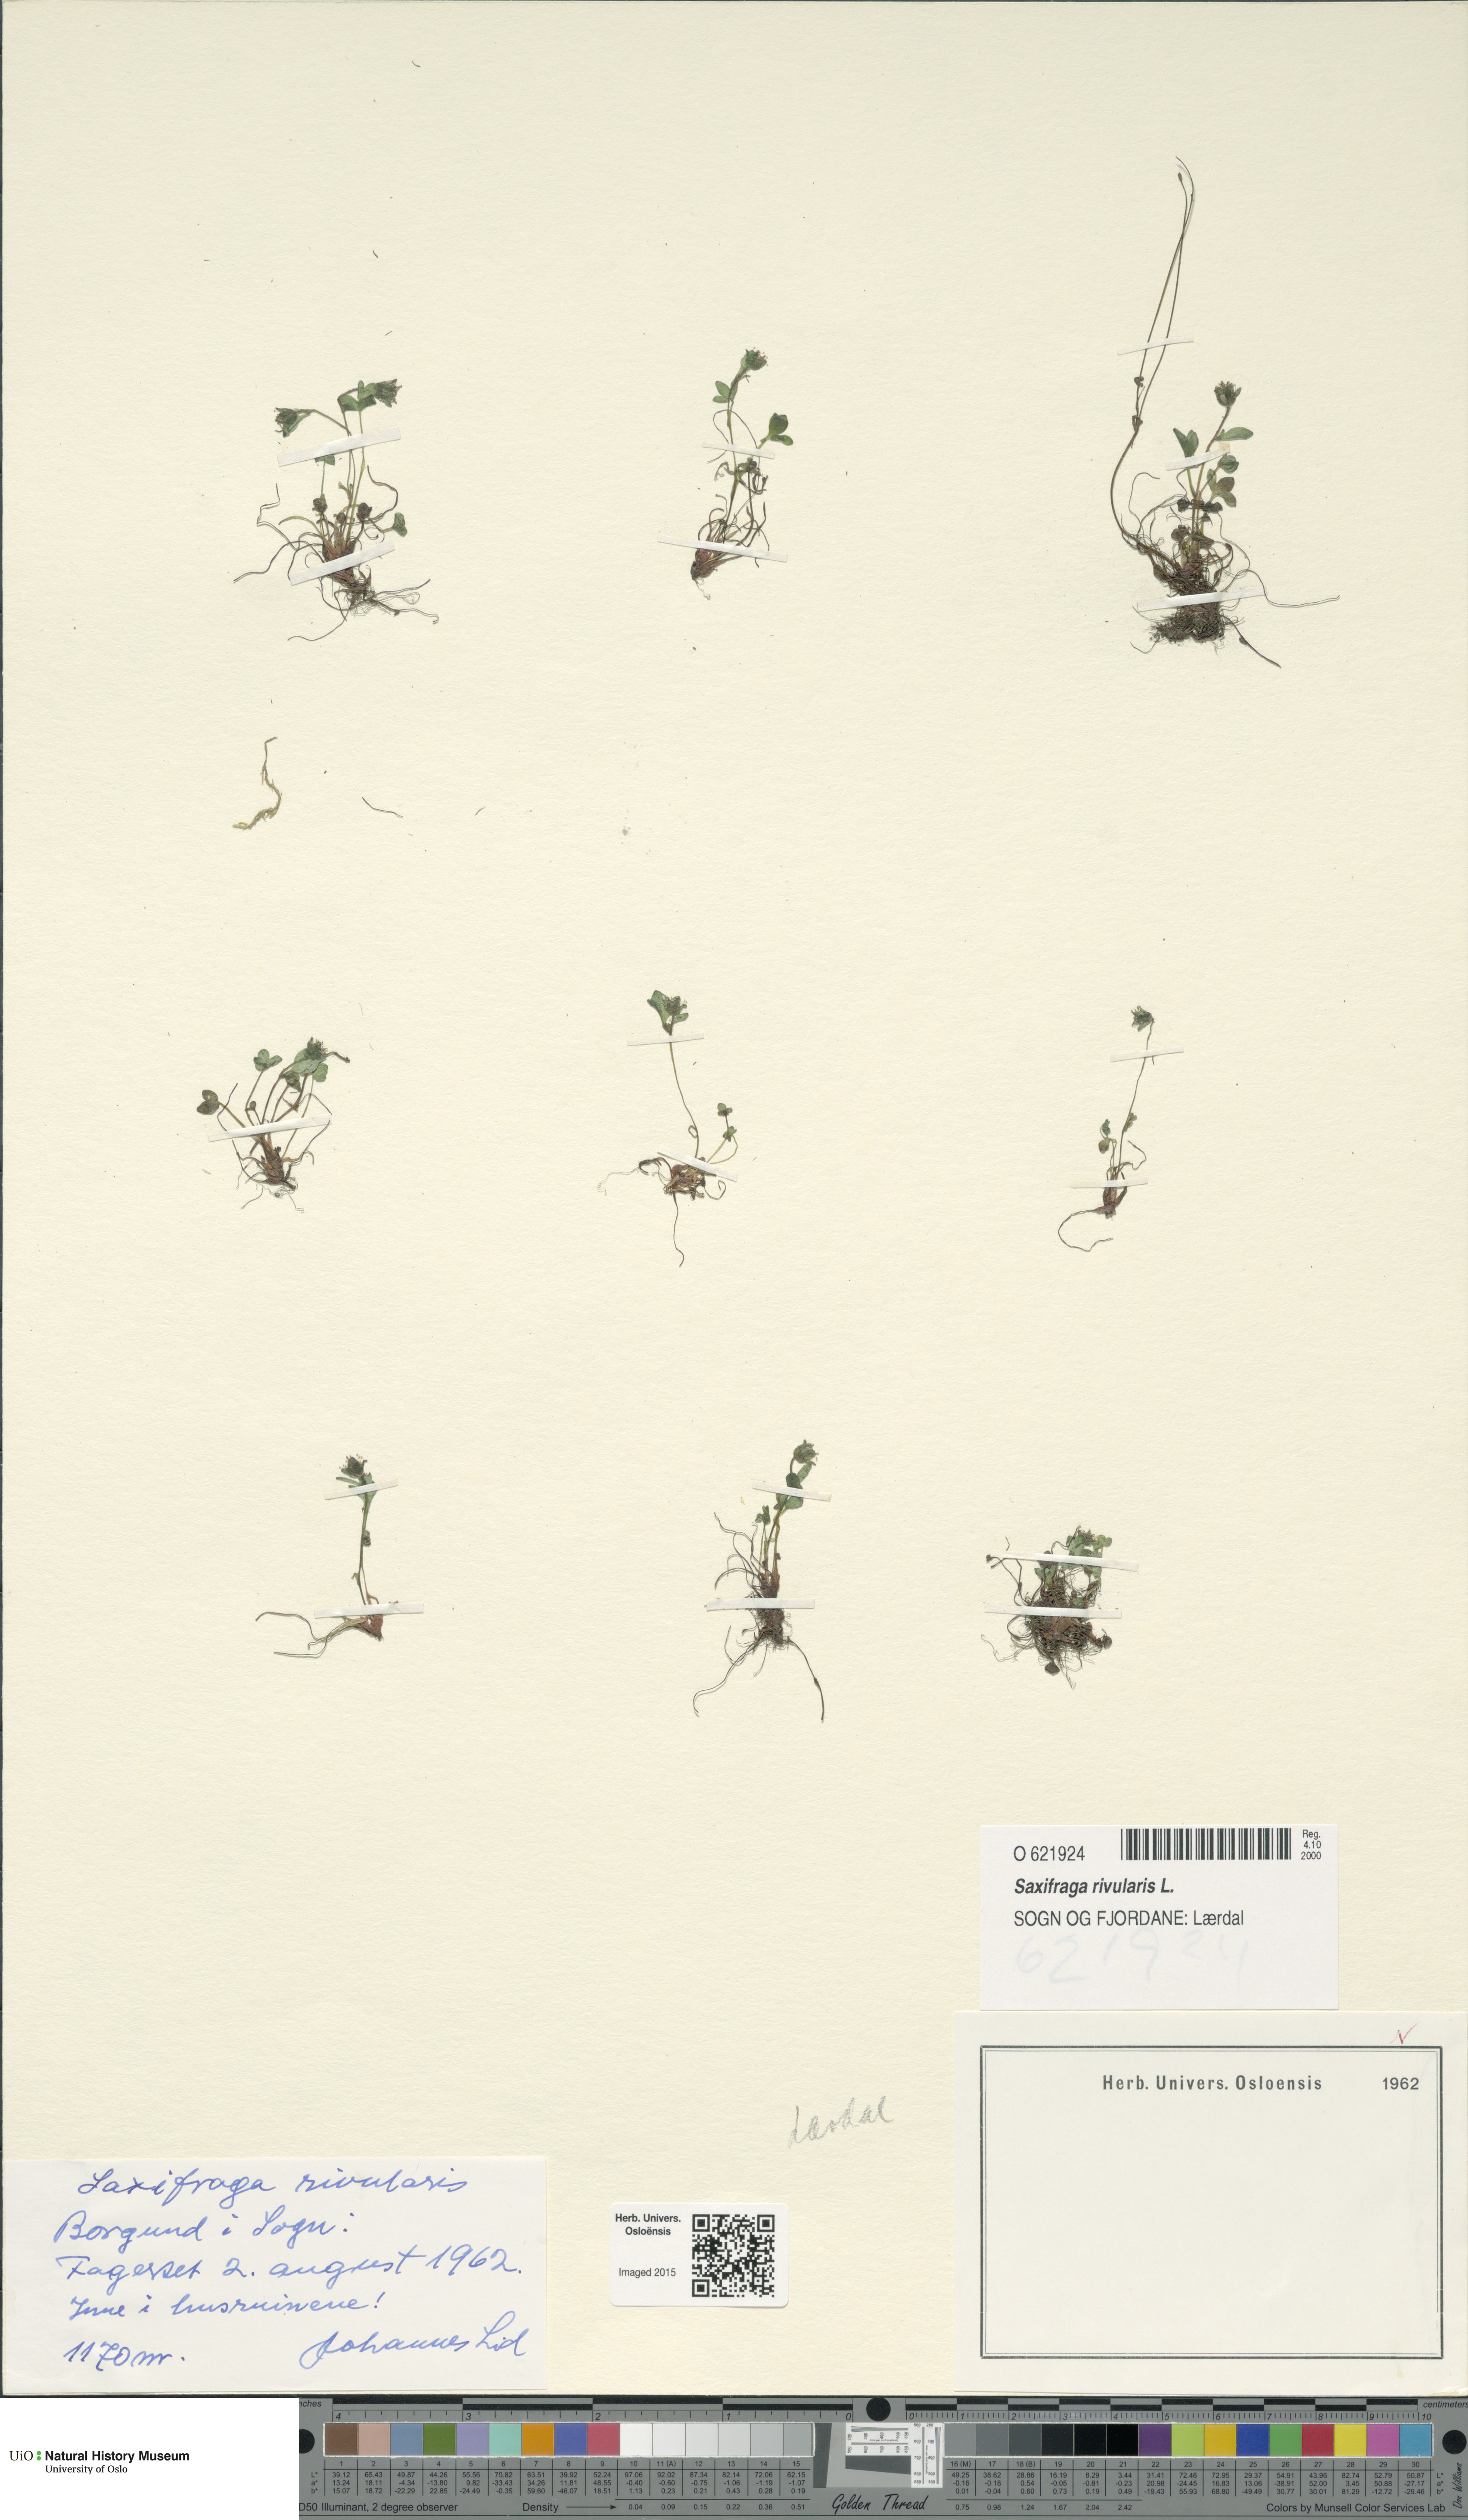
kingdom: Plantae
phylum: Tracheophyta
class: Magnoliopsida
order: Saxifragales
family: Saxifragaceae
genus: Saxifraga
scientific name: Saxifraga rivularis
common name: Highland saxifrage
